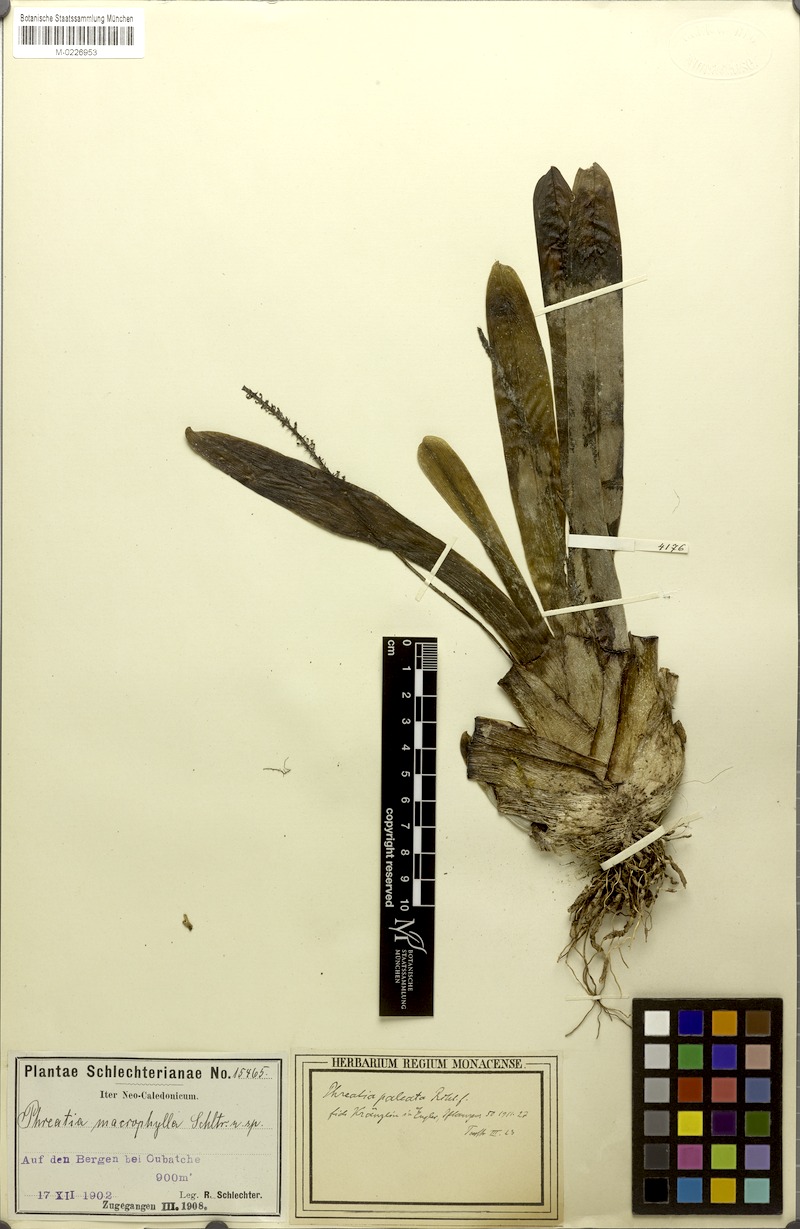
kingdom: Plantae
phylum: Tracheophyta
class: Liliopsida
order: Asparagales
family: Orchidaceae
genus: Phreatia
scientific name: Phreatia micrantha
